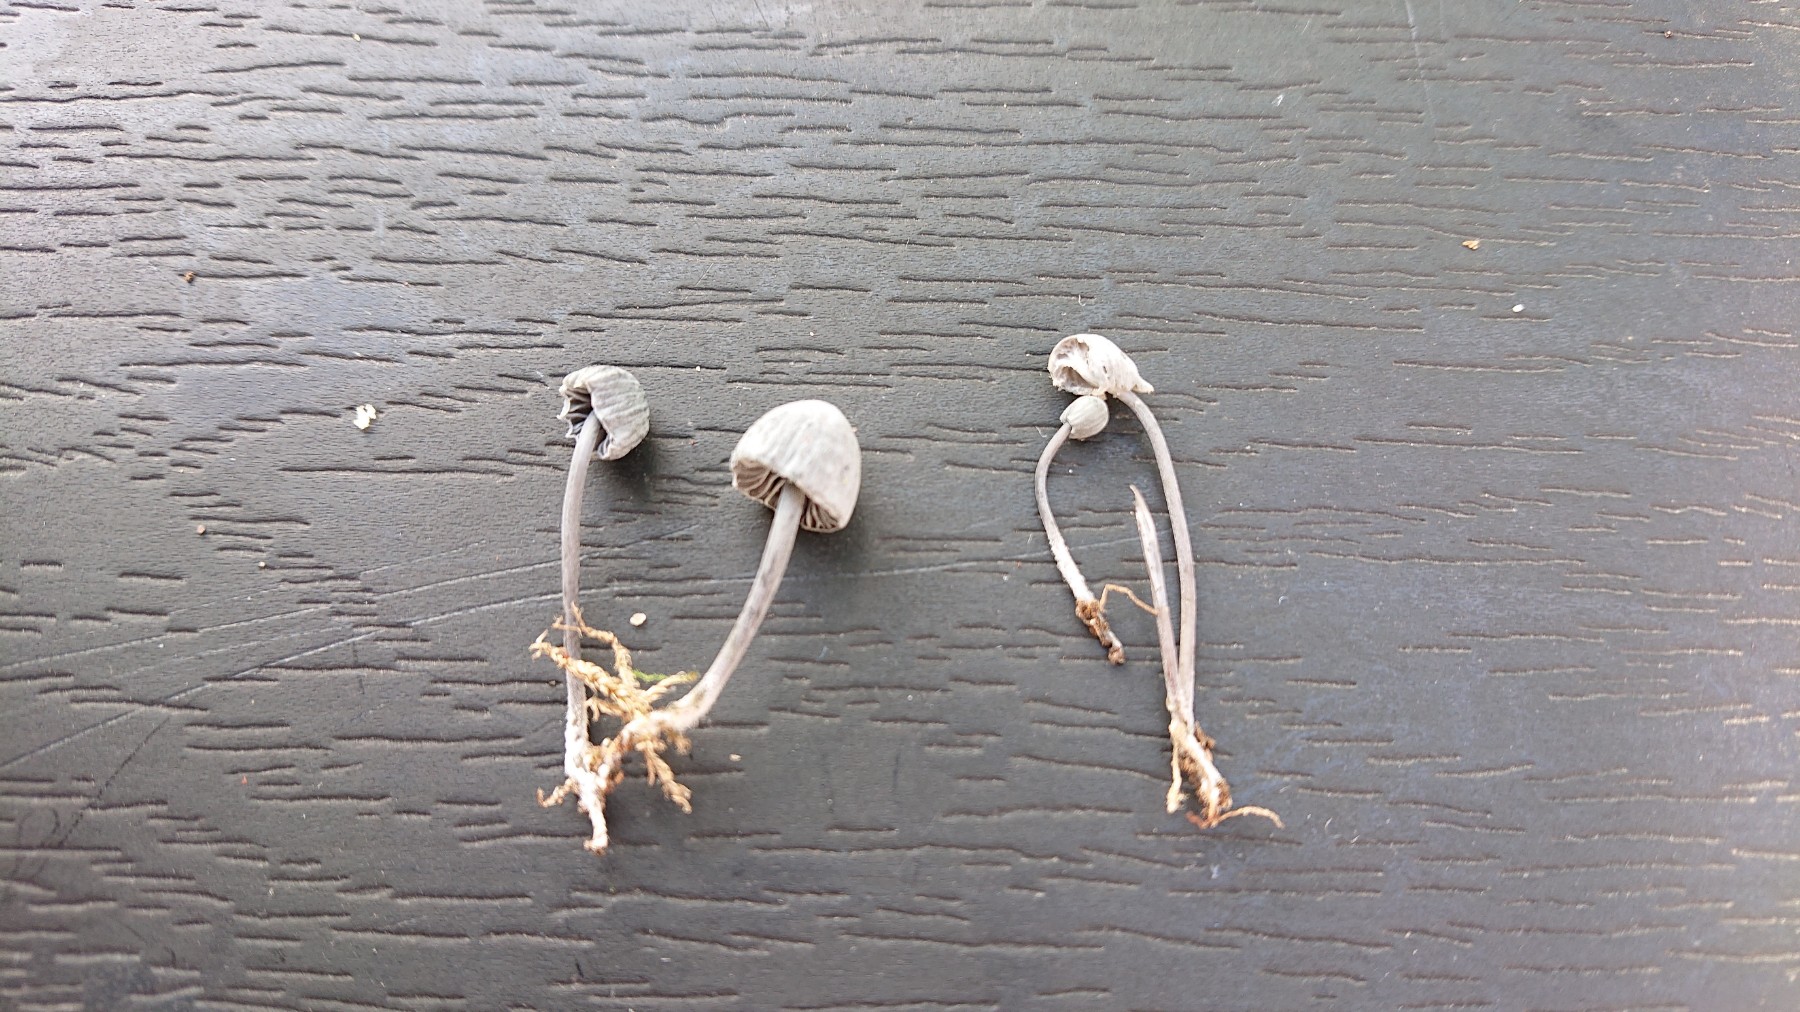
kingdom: Fungi
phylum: Basidiomycota
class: Agaricomycetes
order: Agaricales
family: Mycenaceae
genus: Mycena
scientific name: Mycena pseudocorticola
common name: gråblå bark-huesvamp
